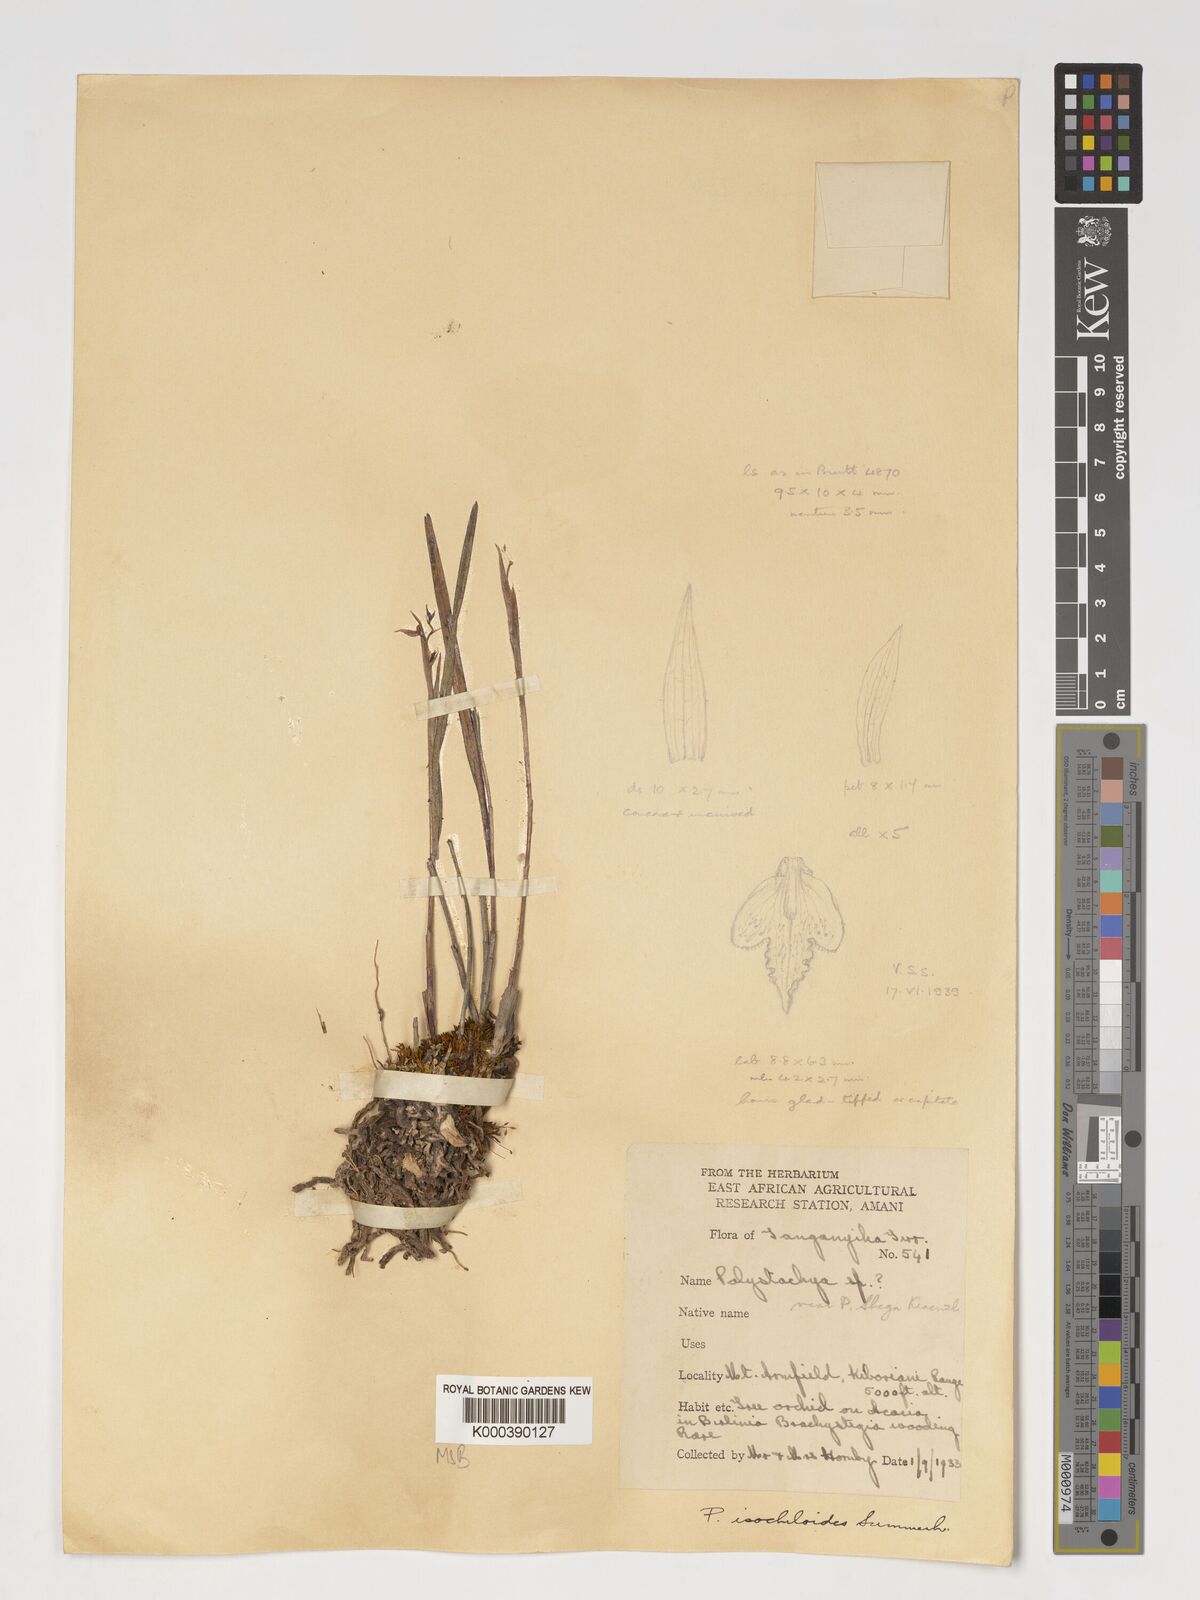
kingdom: Plantae
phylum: Tracheophyta
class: Liliopsida
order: Asparagales
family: Orchidaceae
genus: Polystachya
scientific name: Polystachya isochiloides
